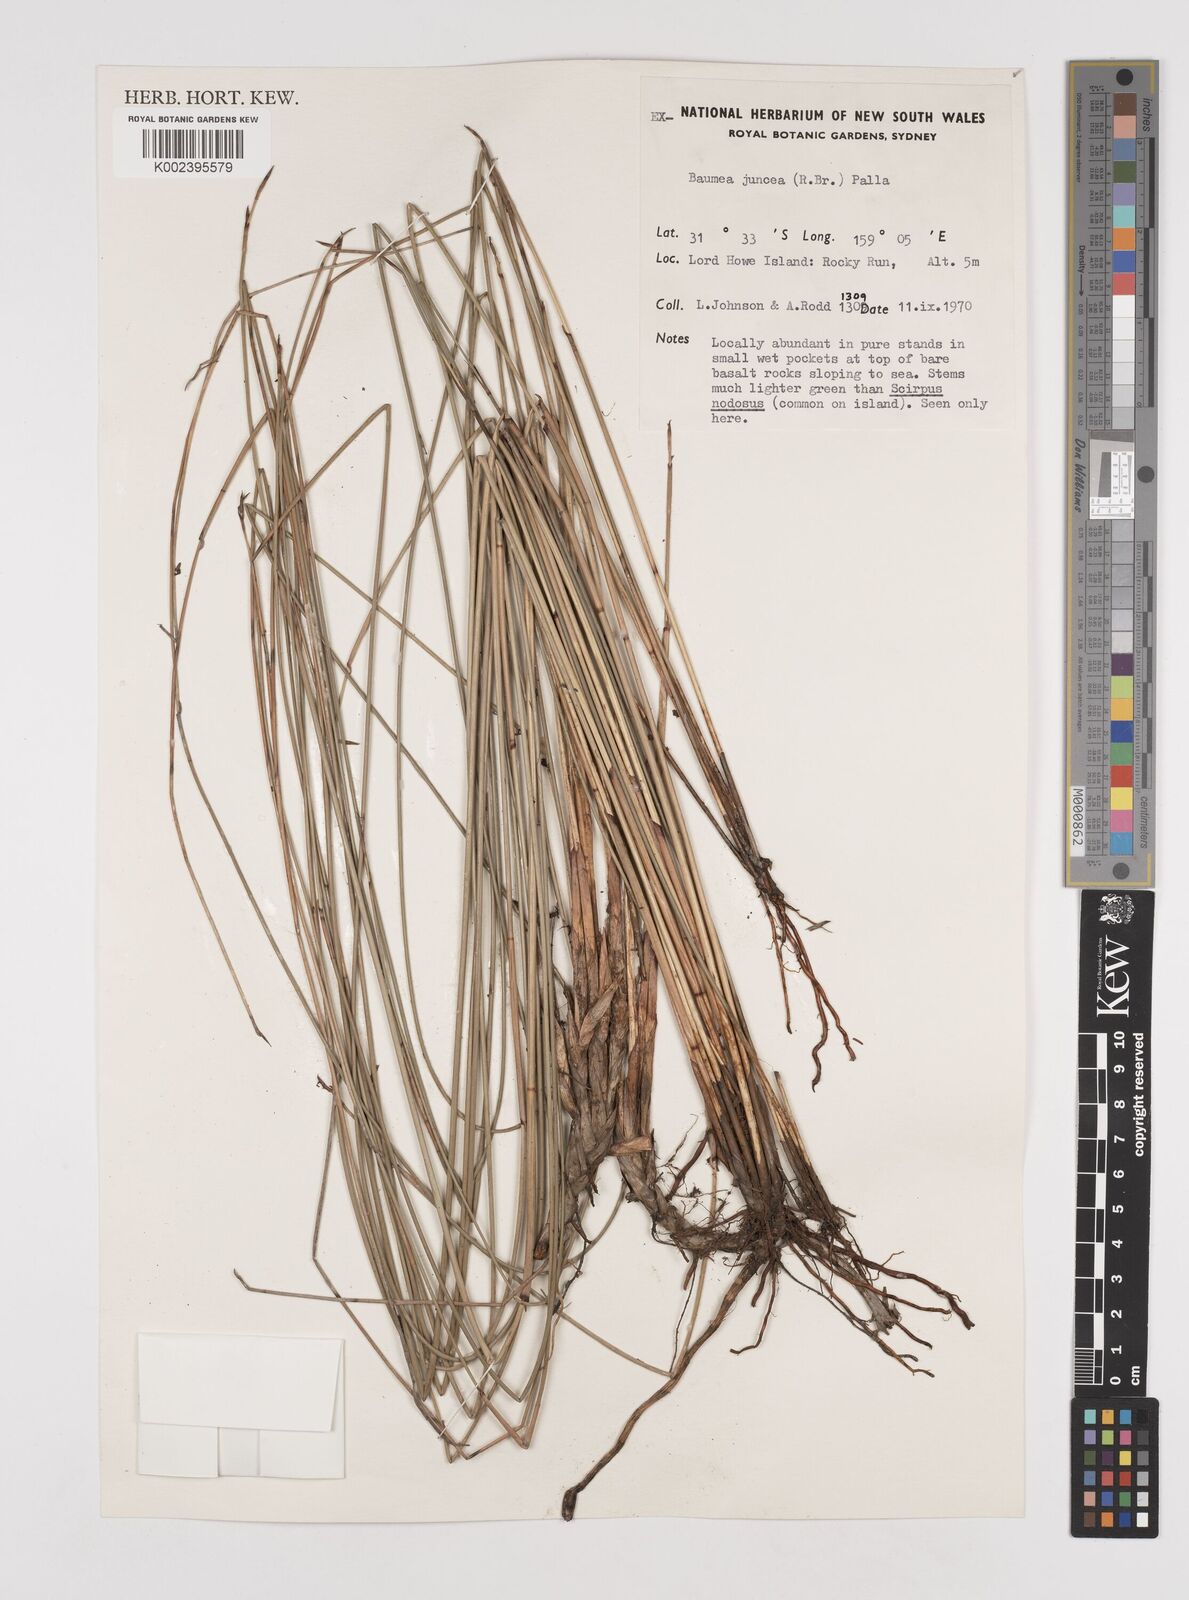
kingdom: Plantae
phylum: Tracheophyta
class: Liliopsida
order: Poales
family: Cyperaceae
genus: Machaerina
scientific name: Machaerina juncea
